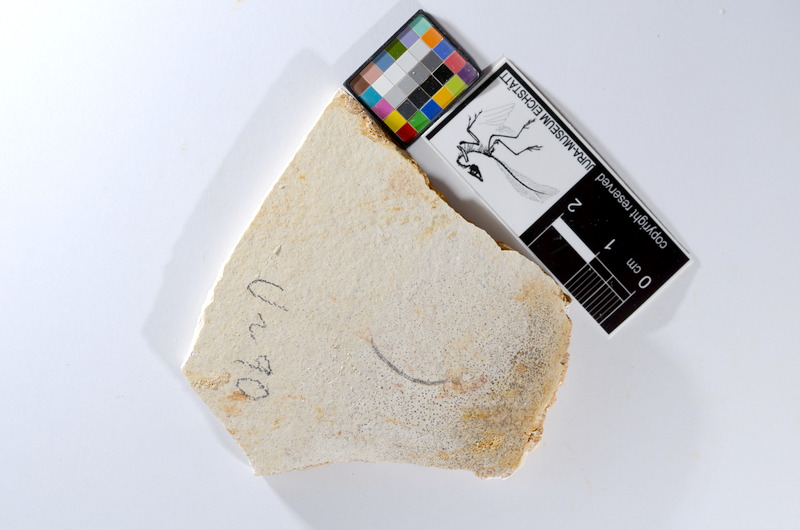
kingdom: Animalia
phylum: Chordata
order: Salmoniformes
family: Orthogonikleithridae
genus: Orthogonikleithrus
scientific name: Orthogonikleithrus hoelli
